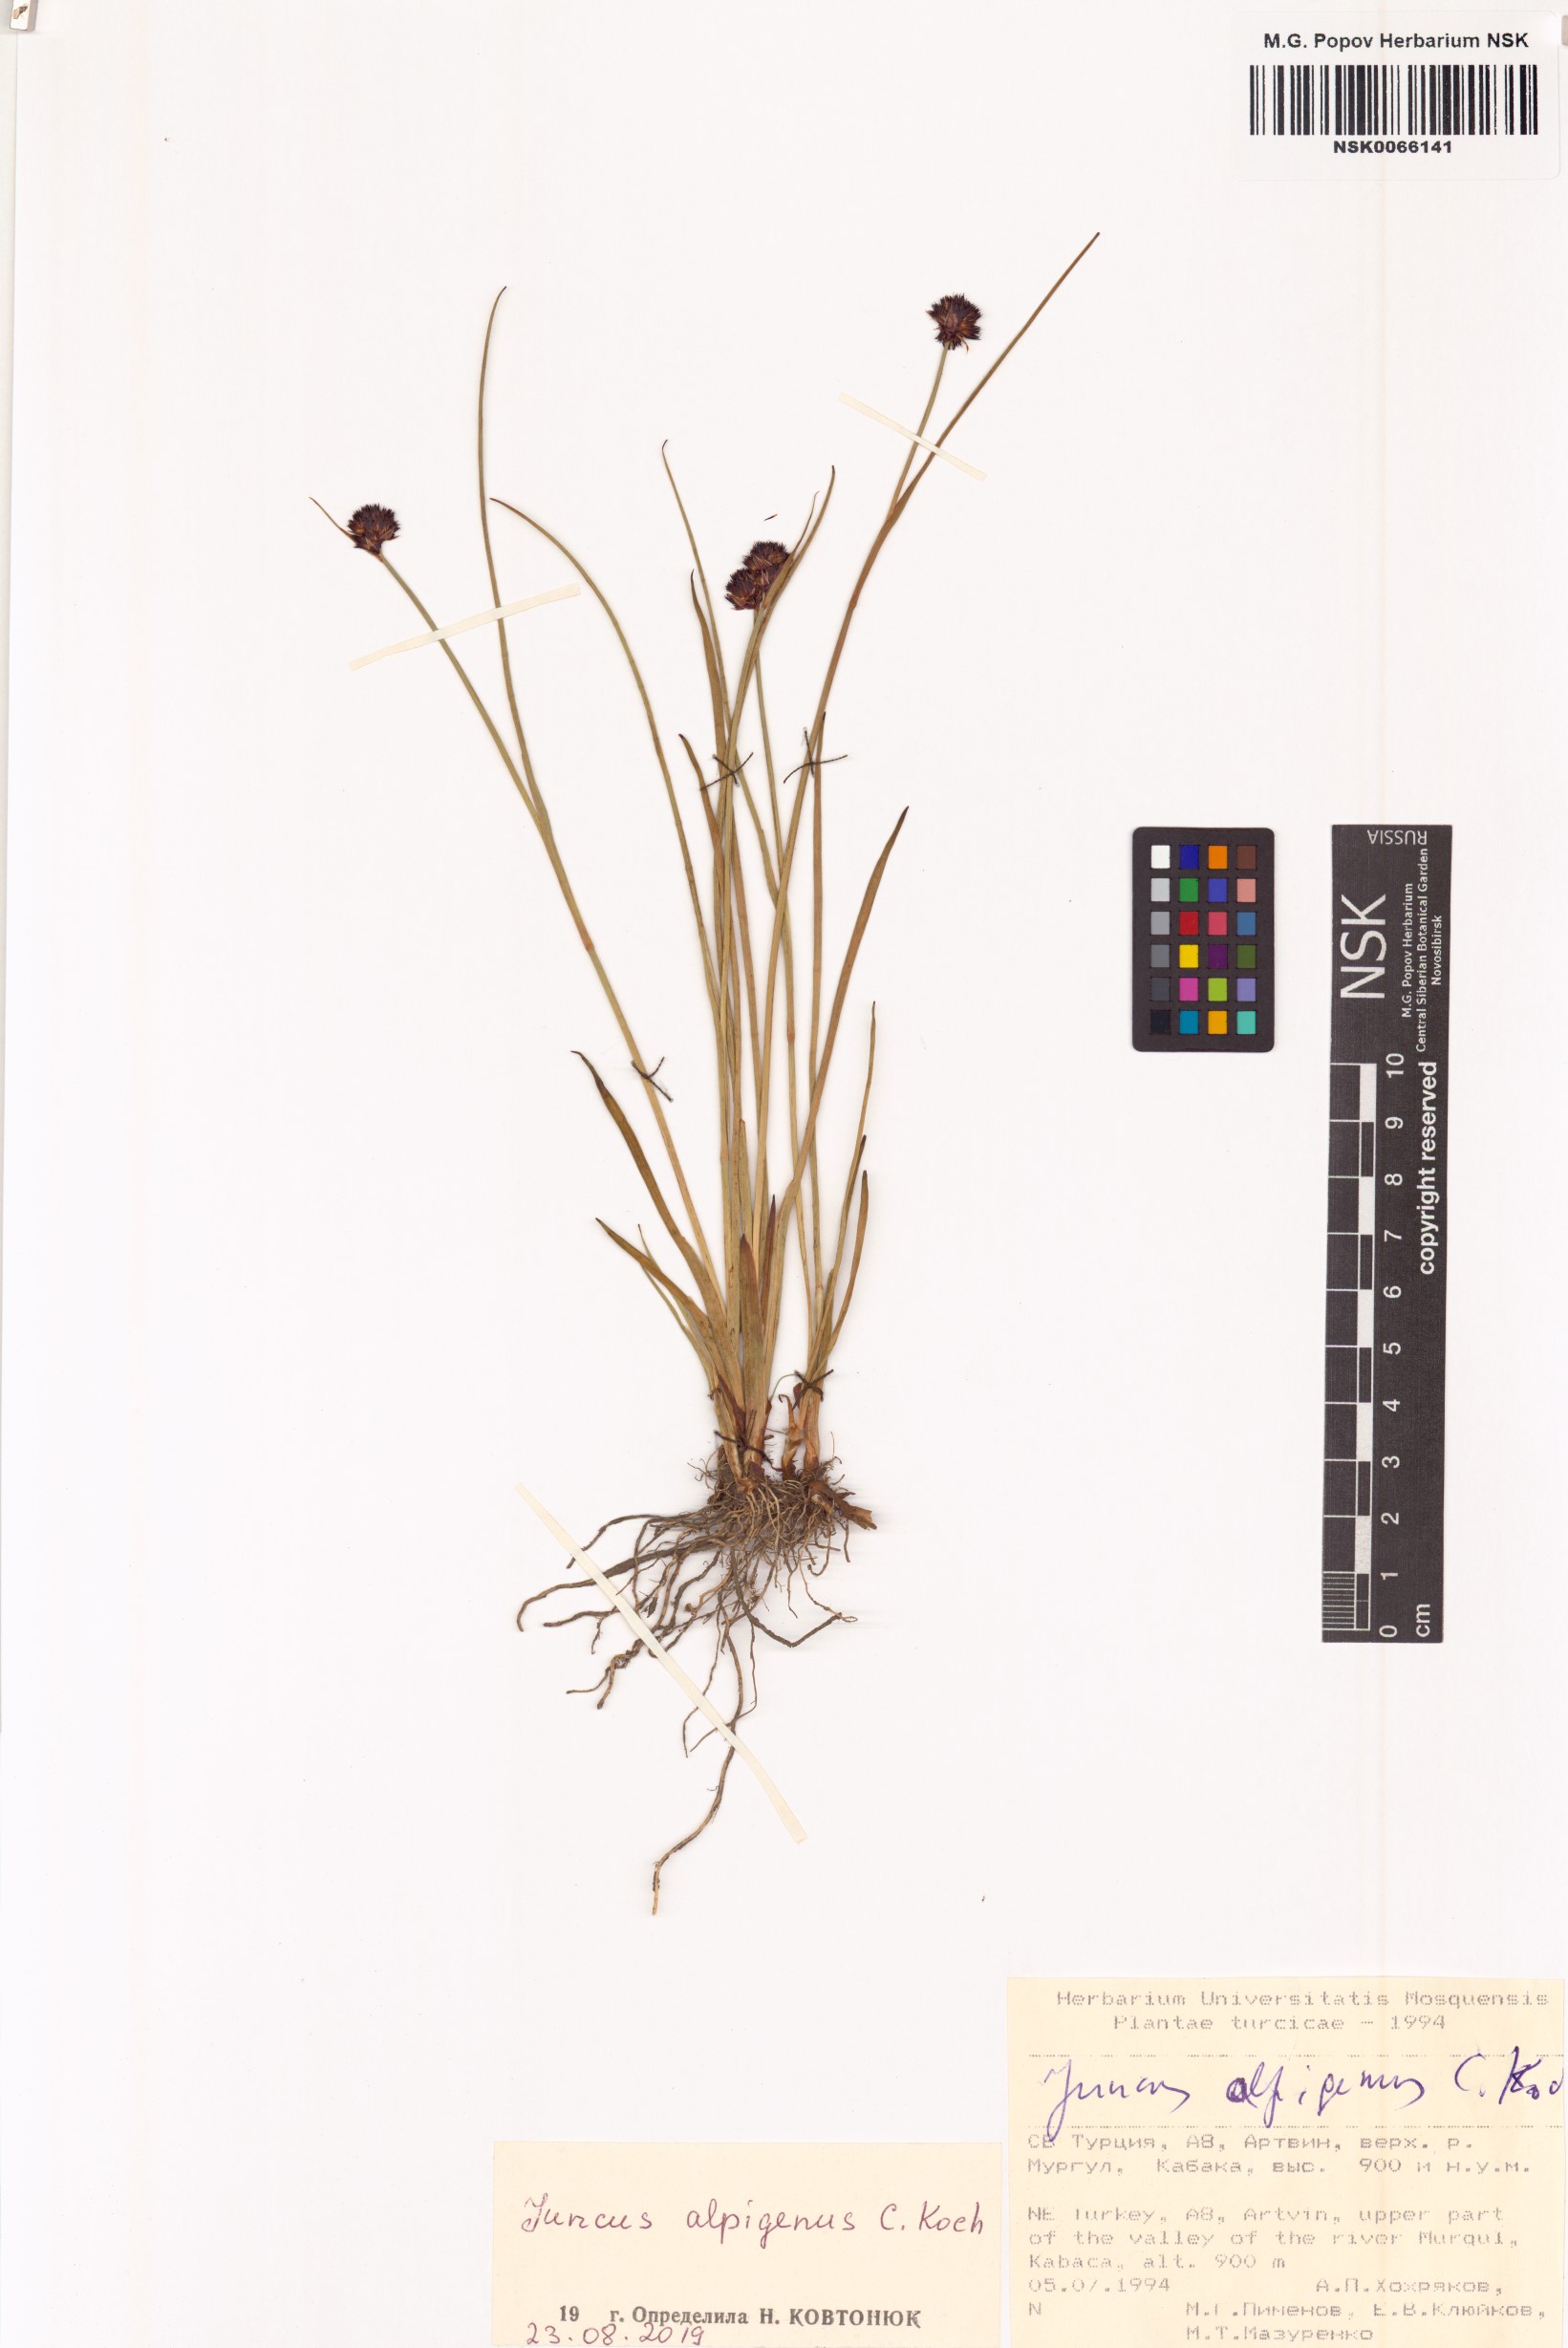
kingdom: Plantae
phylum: Tracheophyta
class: Liliopsida
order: Poales
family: Juncaceae
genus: Juncus
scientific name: Juncus alpigenus
